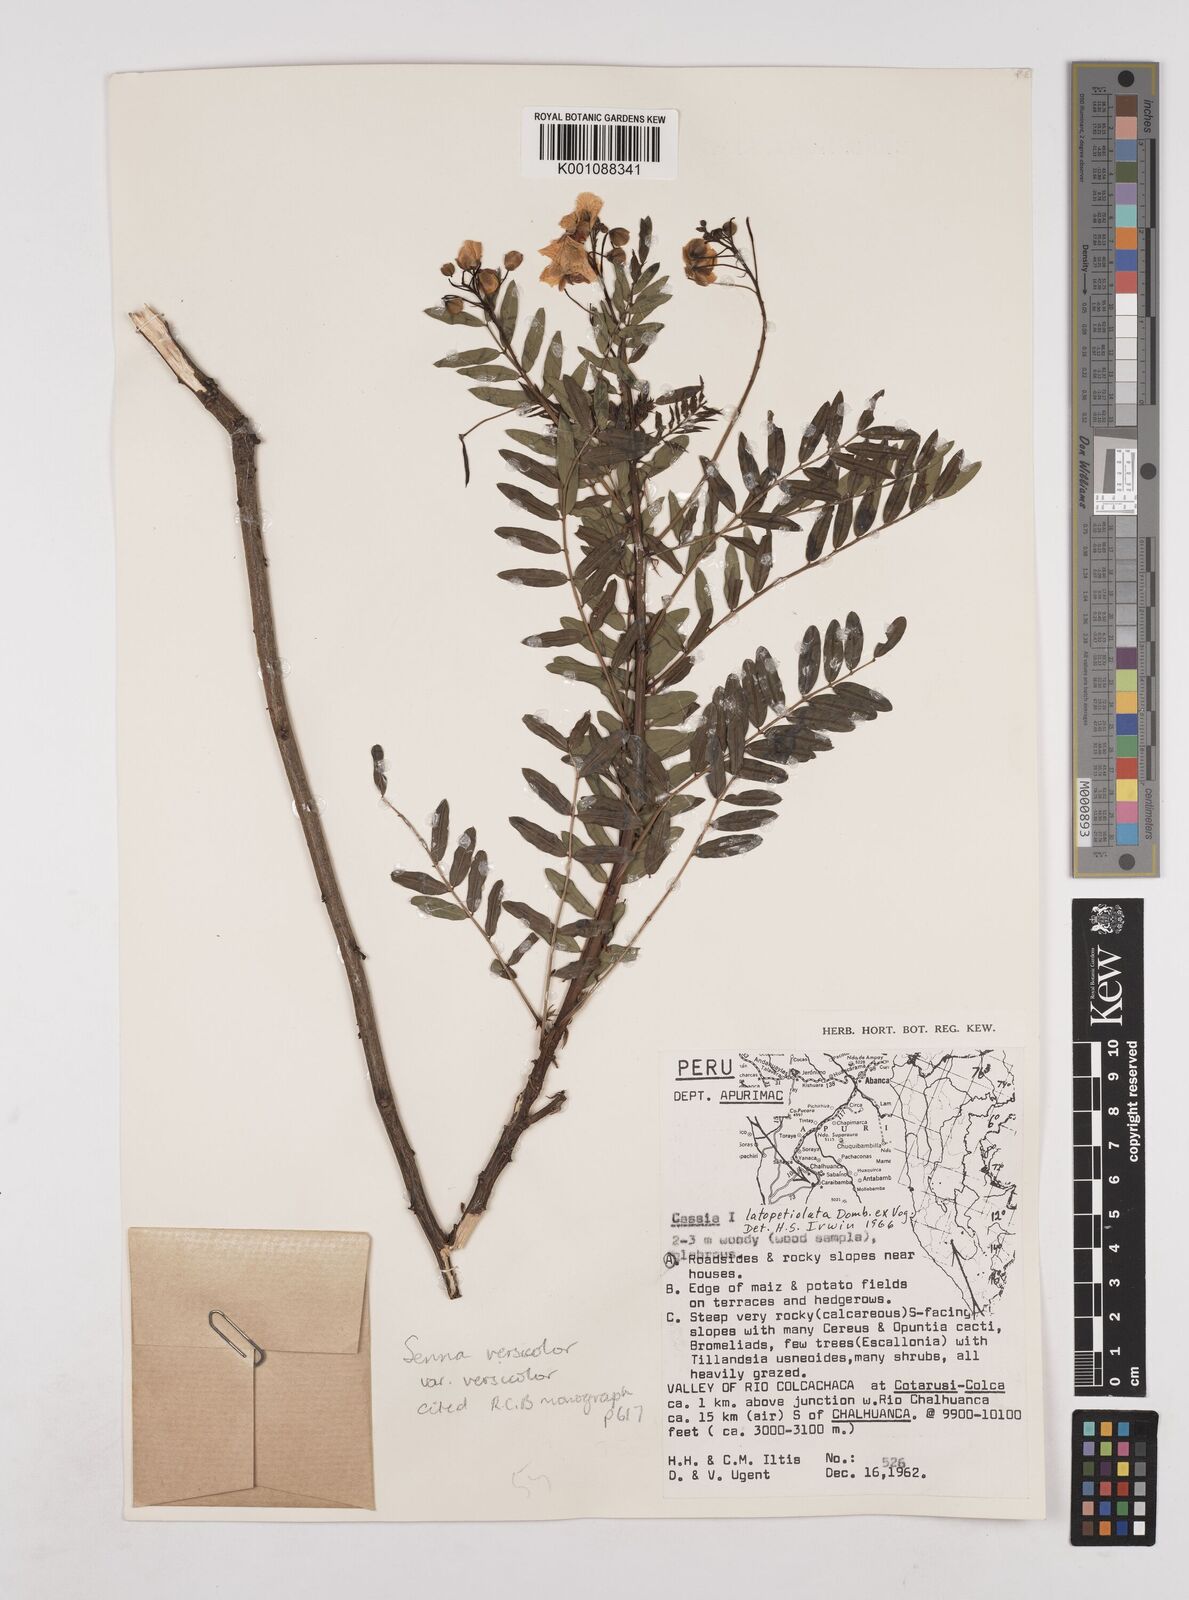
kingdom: Plantae
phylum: Tracheophyta
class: Magnoliopsida
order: Fabales
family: Fabaceae
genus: Senna
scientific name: Senna versicolor
